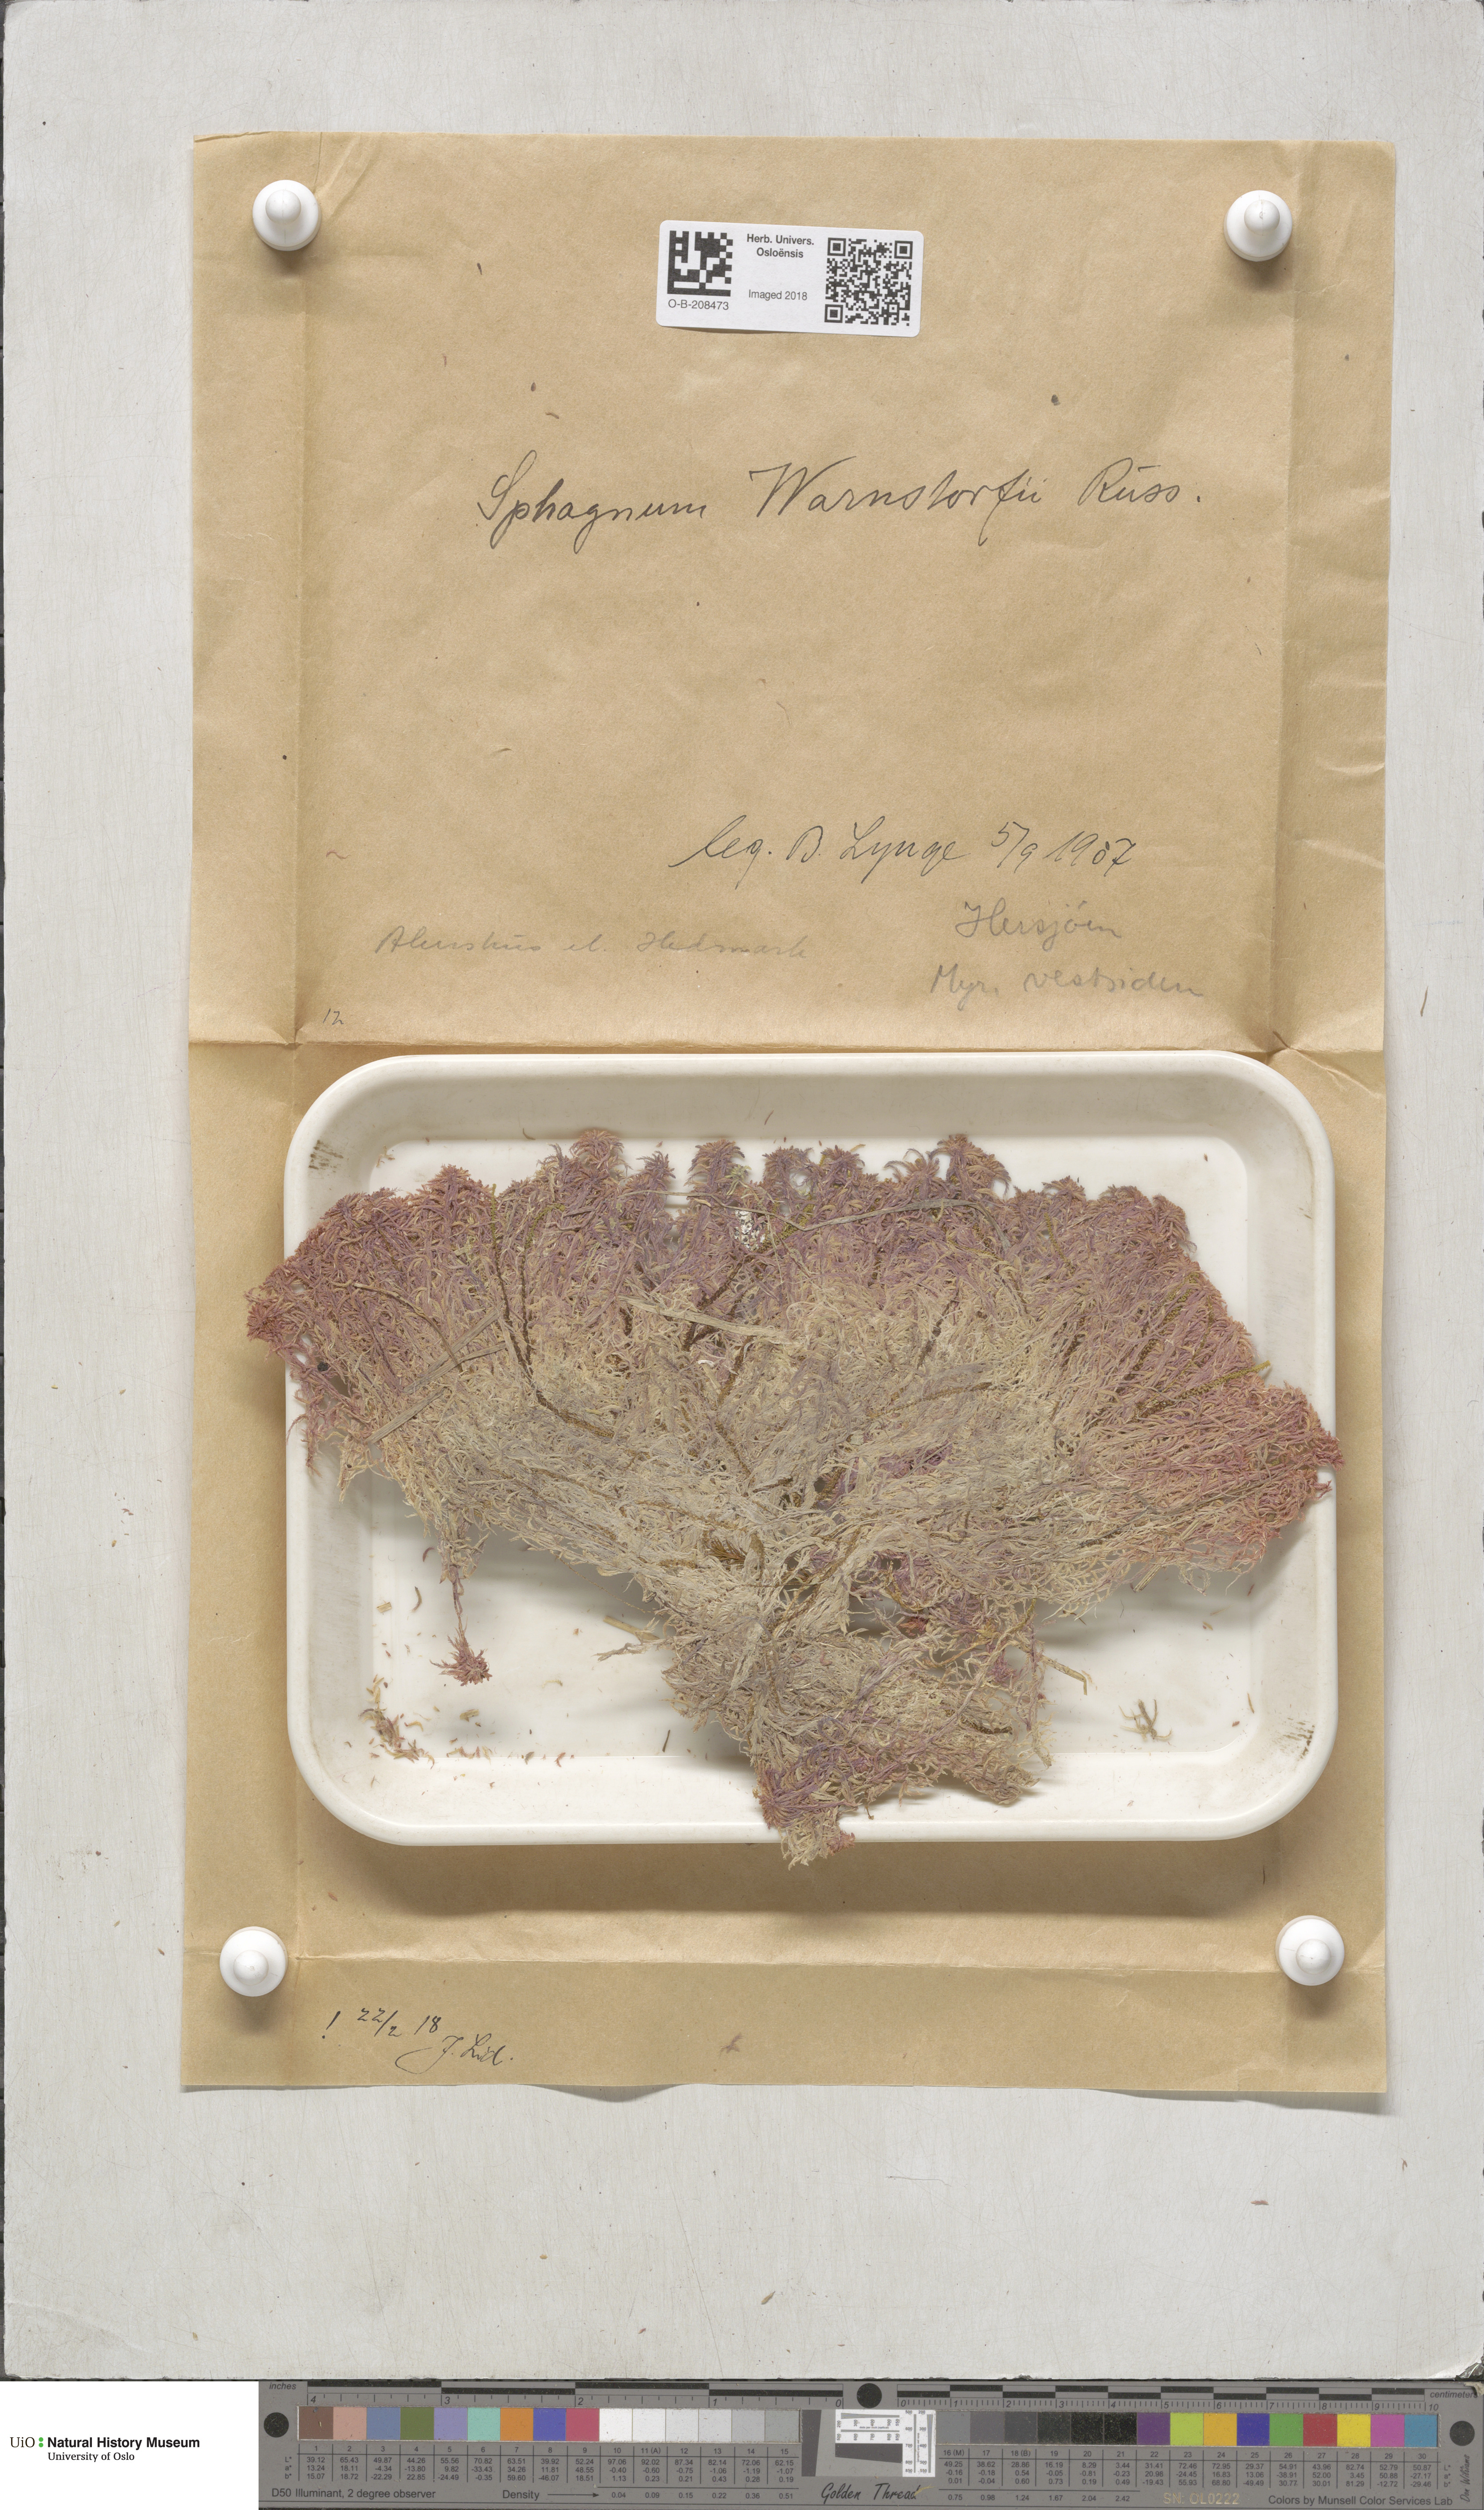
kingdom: Plantae
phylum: Bryophyta
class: Sphagnopsida
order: Sphagnales
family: Sphagnaceae
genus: Sphagnum
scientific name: Sphagnum warnstorfii
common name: Warnstorf's peat moss
